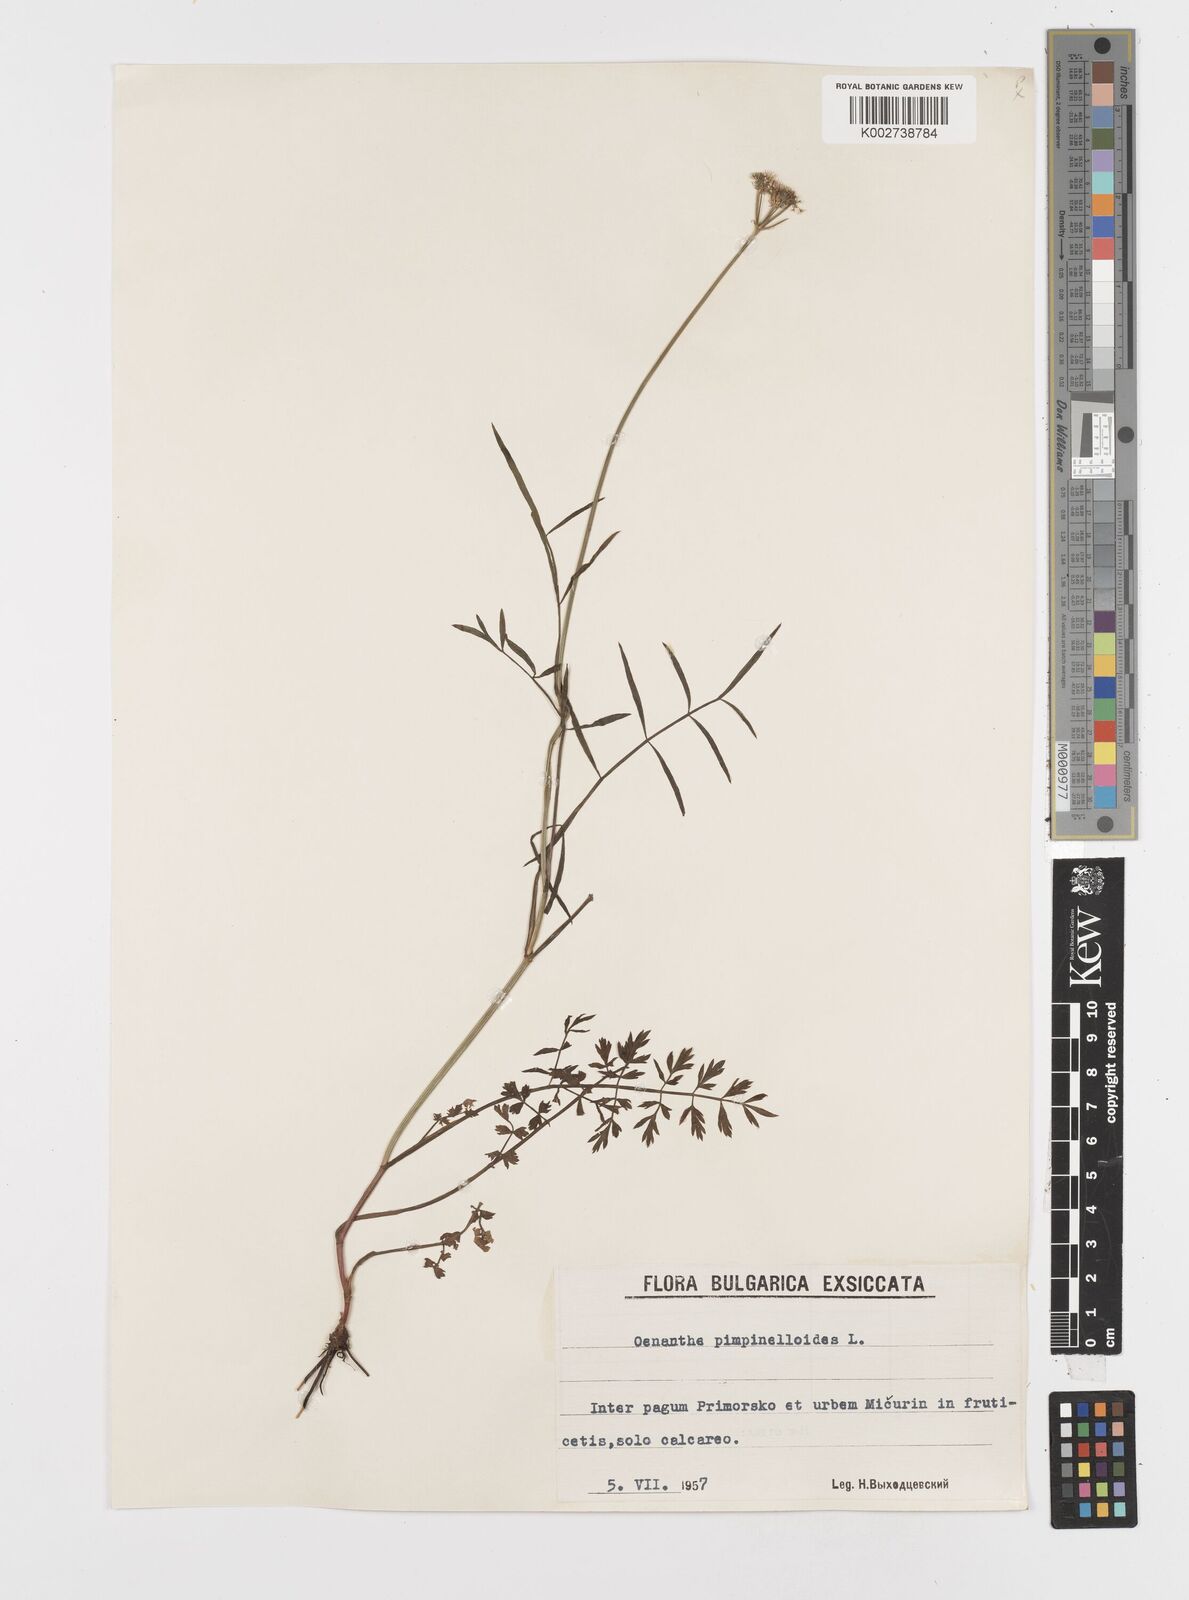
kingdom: Plantae
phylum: Tracheophyta
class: Magnoliopsida
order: Apiales
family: Apiaceae
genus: Oenanthe
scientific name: Oenanthe pimpinelloides
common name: Corky-fruited water-dropwort
